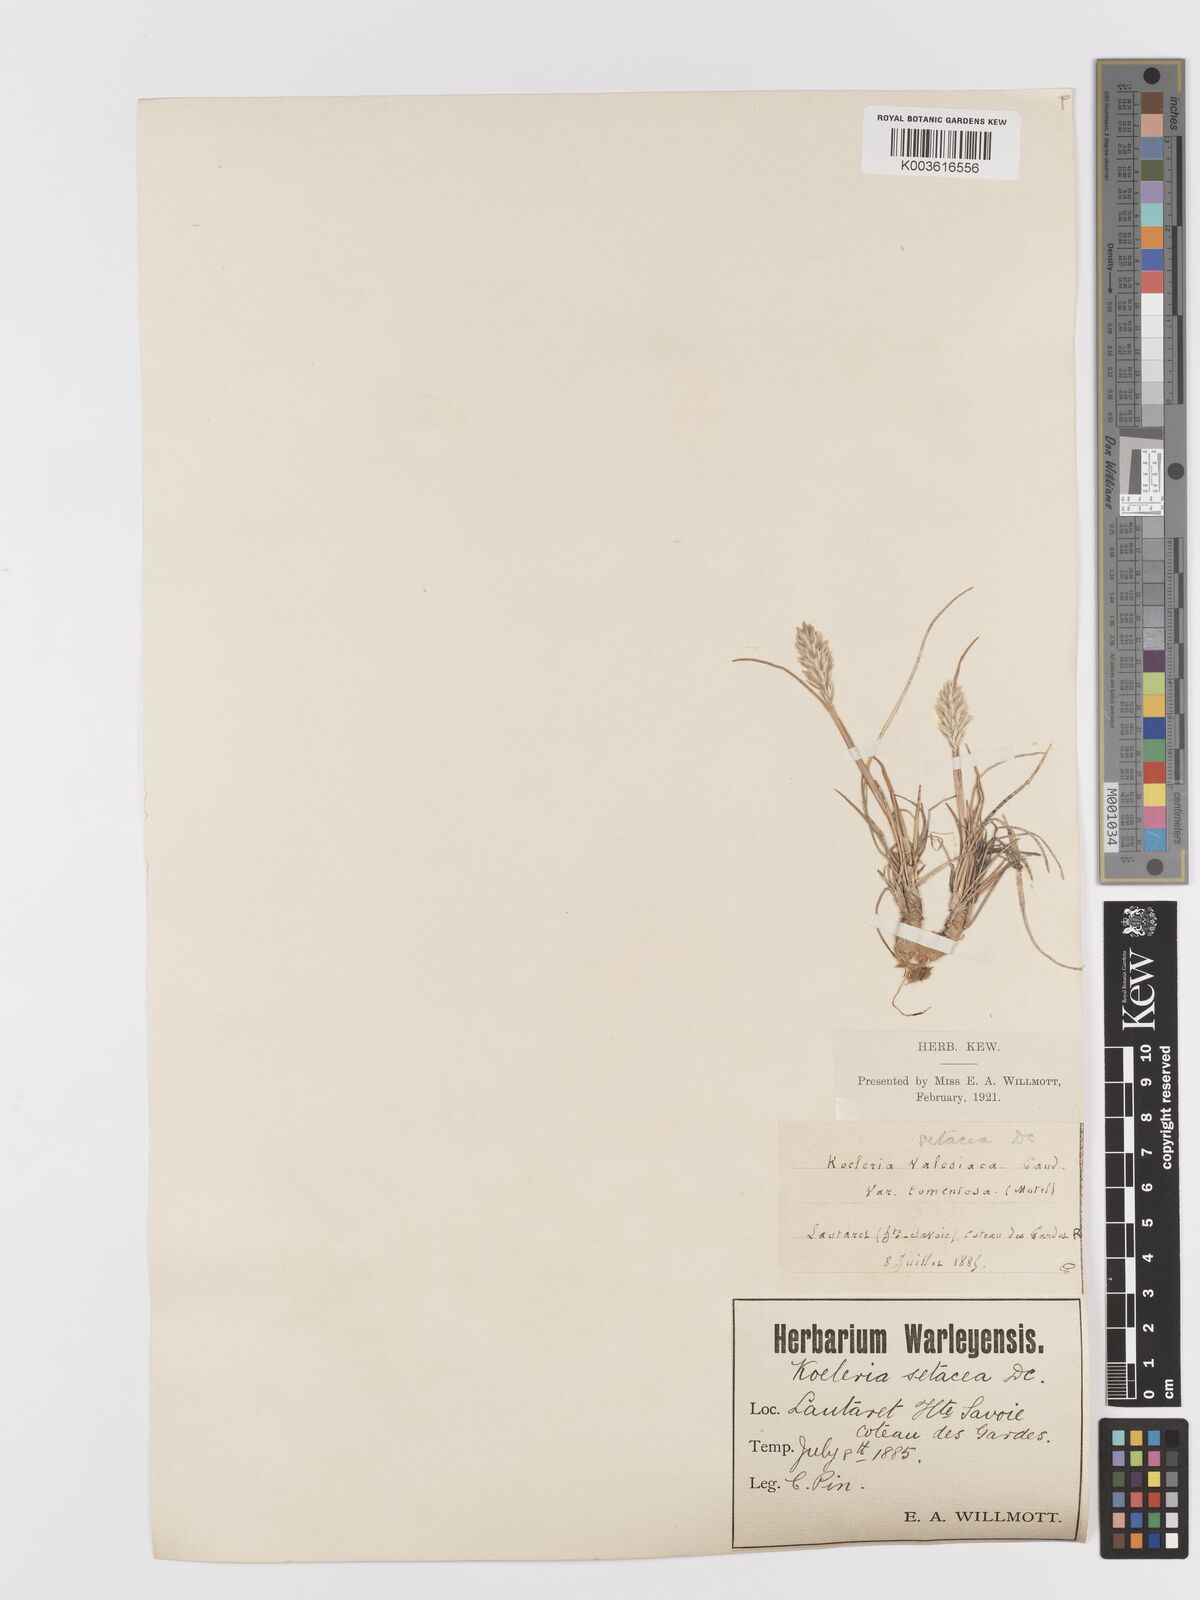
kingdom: Plantae
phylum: Tracheophyta
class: Liliopsida
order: Poales
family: Poaceae
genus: Koeleria
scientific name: Koeleria vallesiana
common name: Somerset hair-grass
